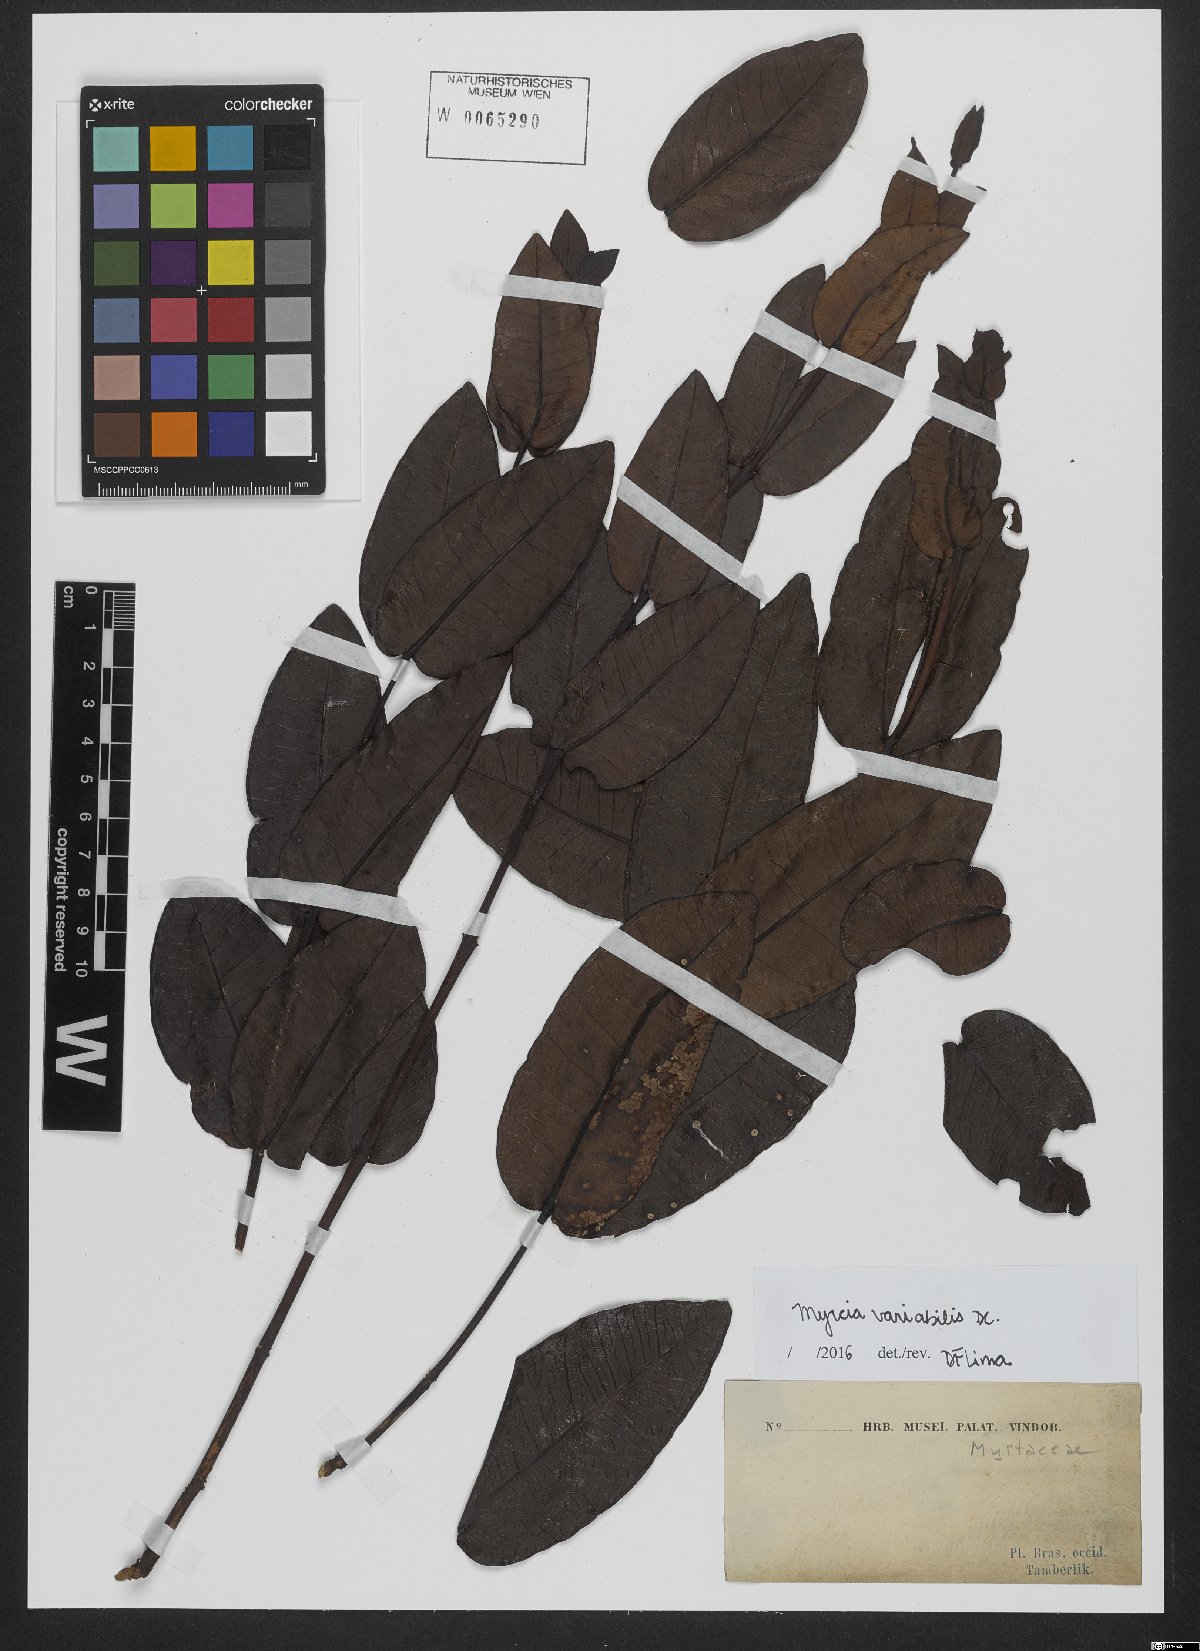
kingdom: Plantae
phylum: Tracheophyta
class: Magnoliopsida
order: Myrtales
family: Myrtaceae
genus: Myrcia
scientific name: Myrcia variabilis
